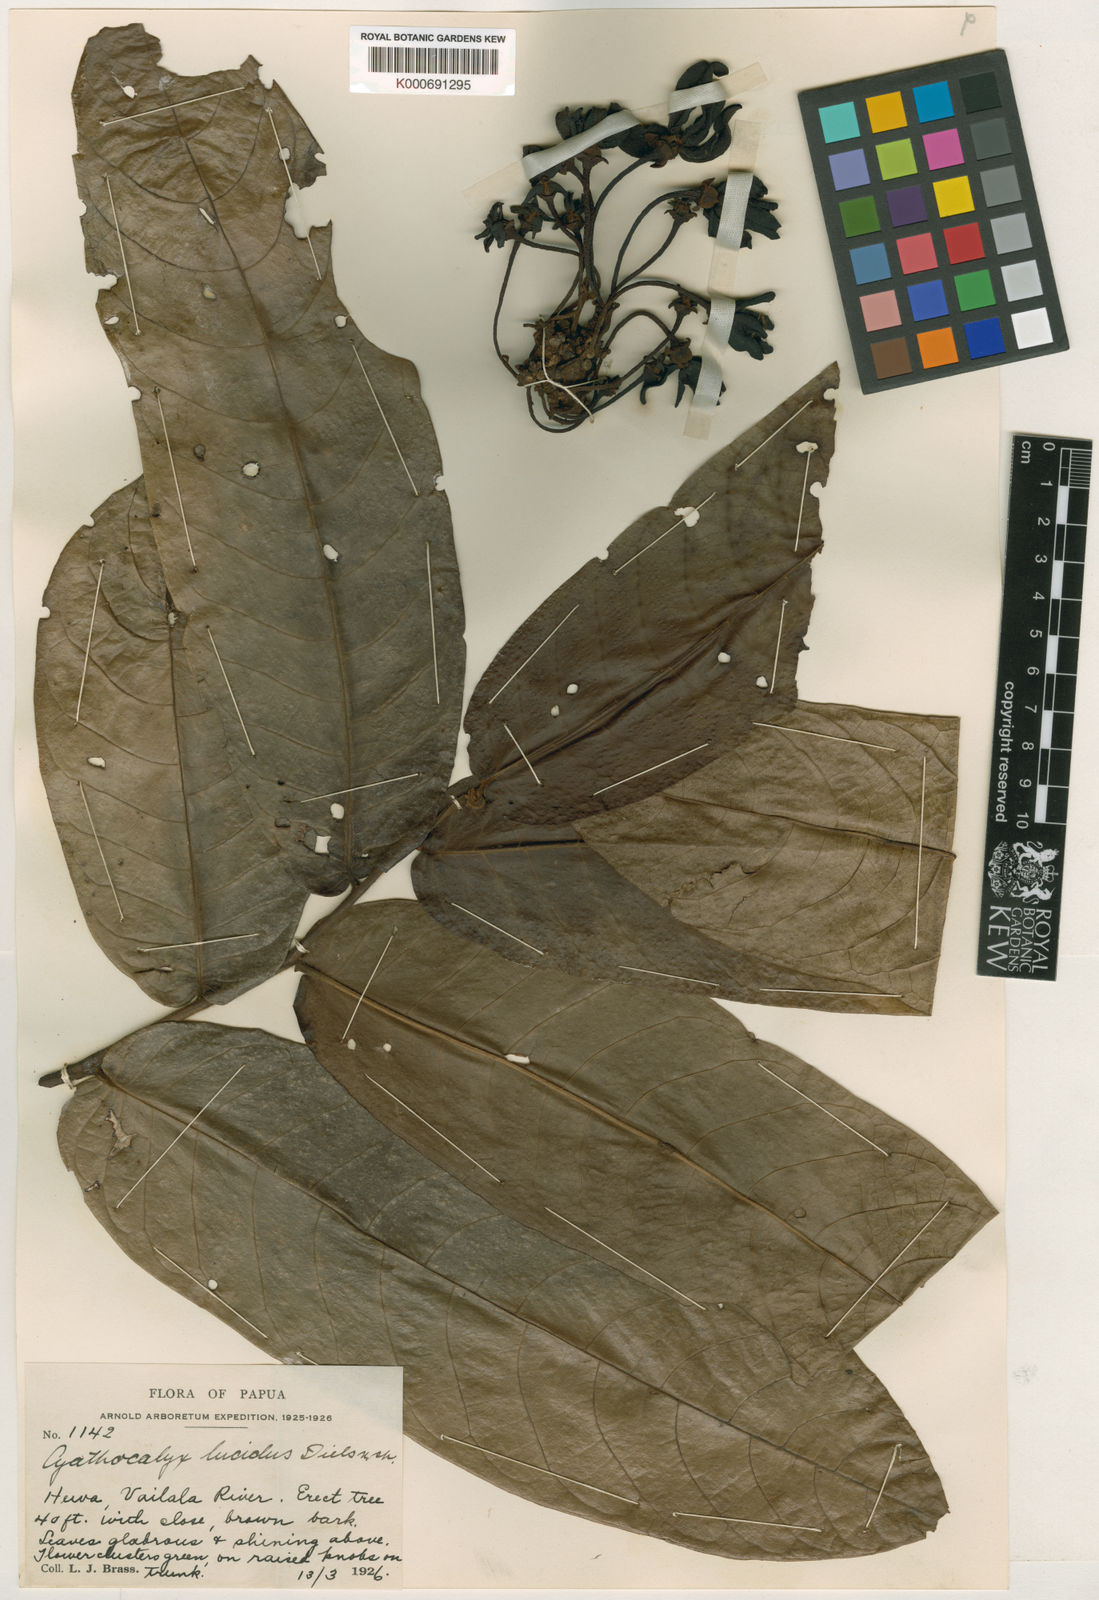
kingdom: Plantae
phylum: Tracheophyta
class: Magnoliopsida
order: Magnoliales
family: Annonaceae
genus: Drepananthus
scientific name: Drepananthus lucidus
